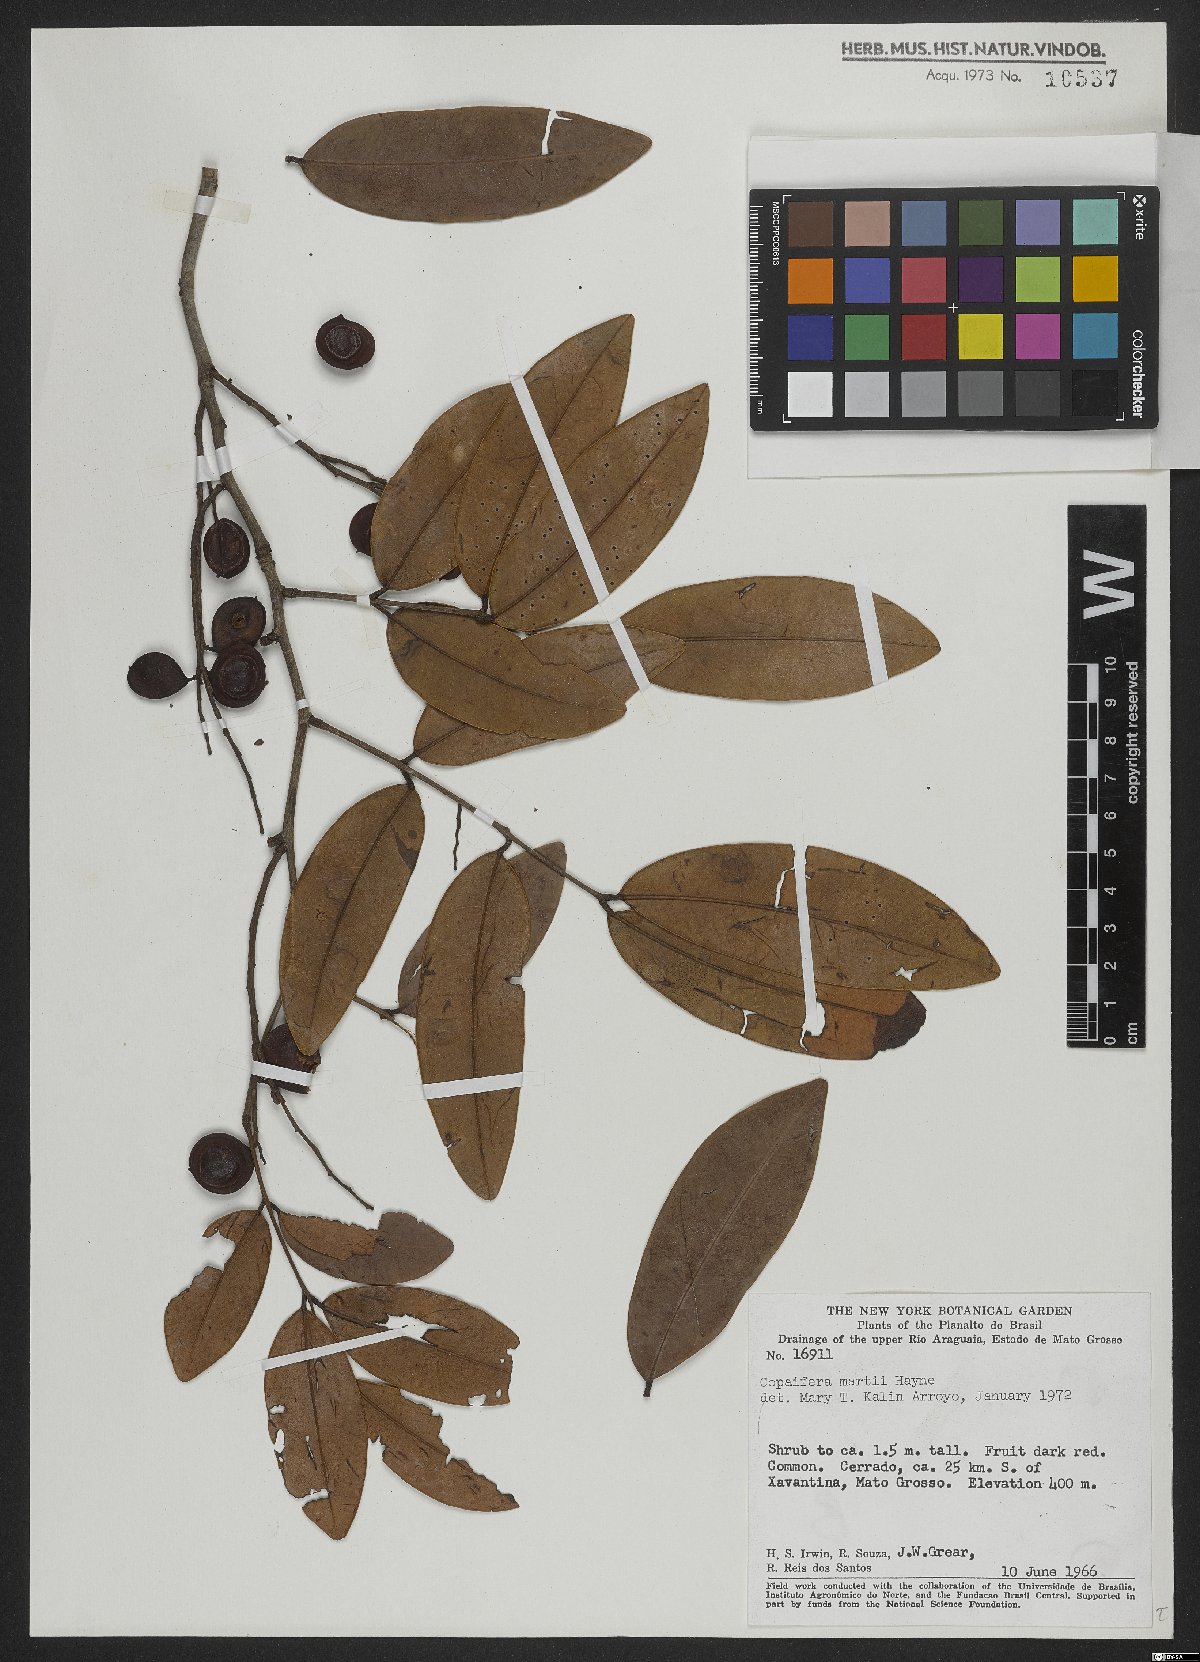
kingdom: Plantae
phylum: Tracheophyta
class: Magnoliopsida
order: Fabales
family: Fabaceae
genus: Copaifera
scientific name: Copaifera martii
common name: Copaiba
